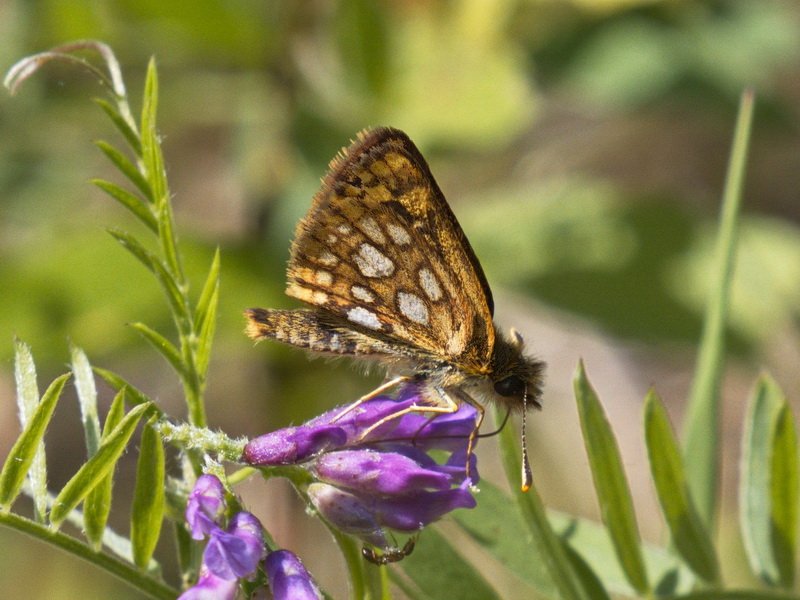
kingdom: Animalia
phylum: Arthropoda
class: Insecta
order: Lepidoptera
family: Hesperiidae
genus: Carterocephalus
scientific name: Carterocephalus palaemon
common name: Chequered Skipper
